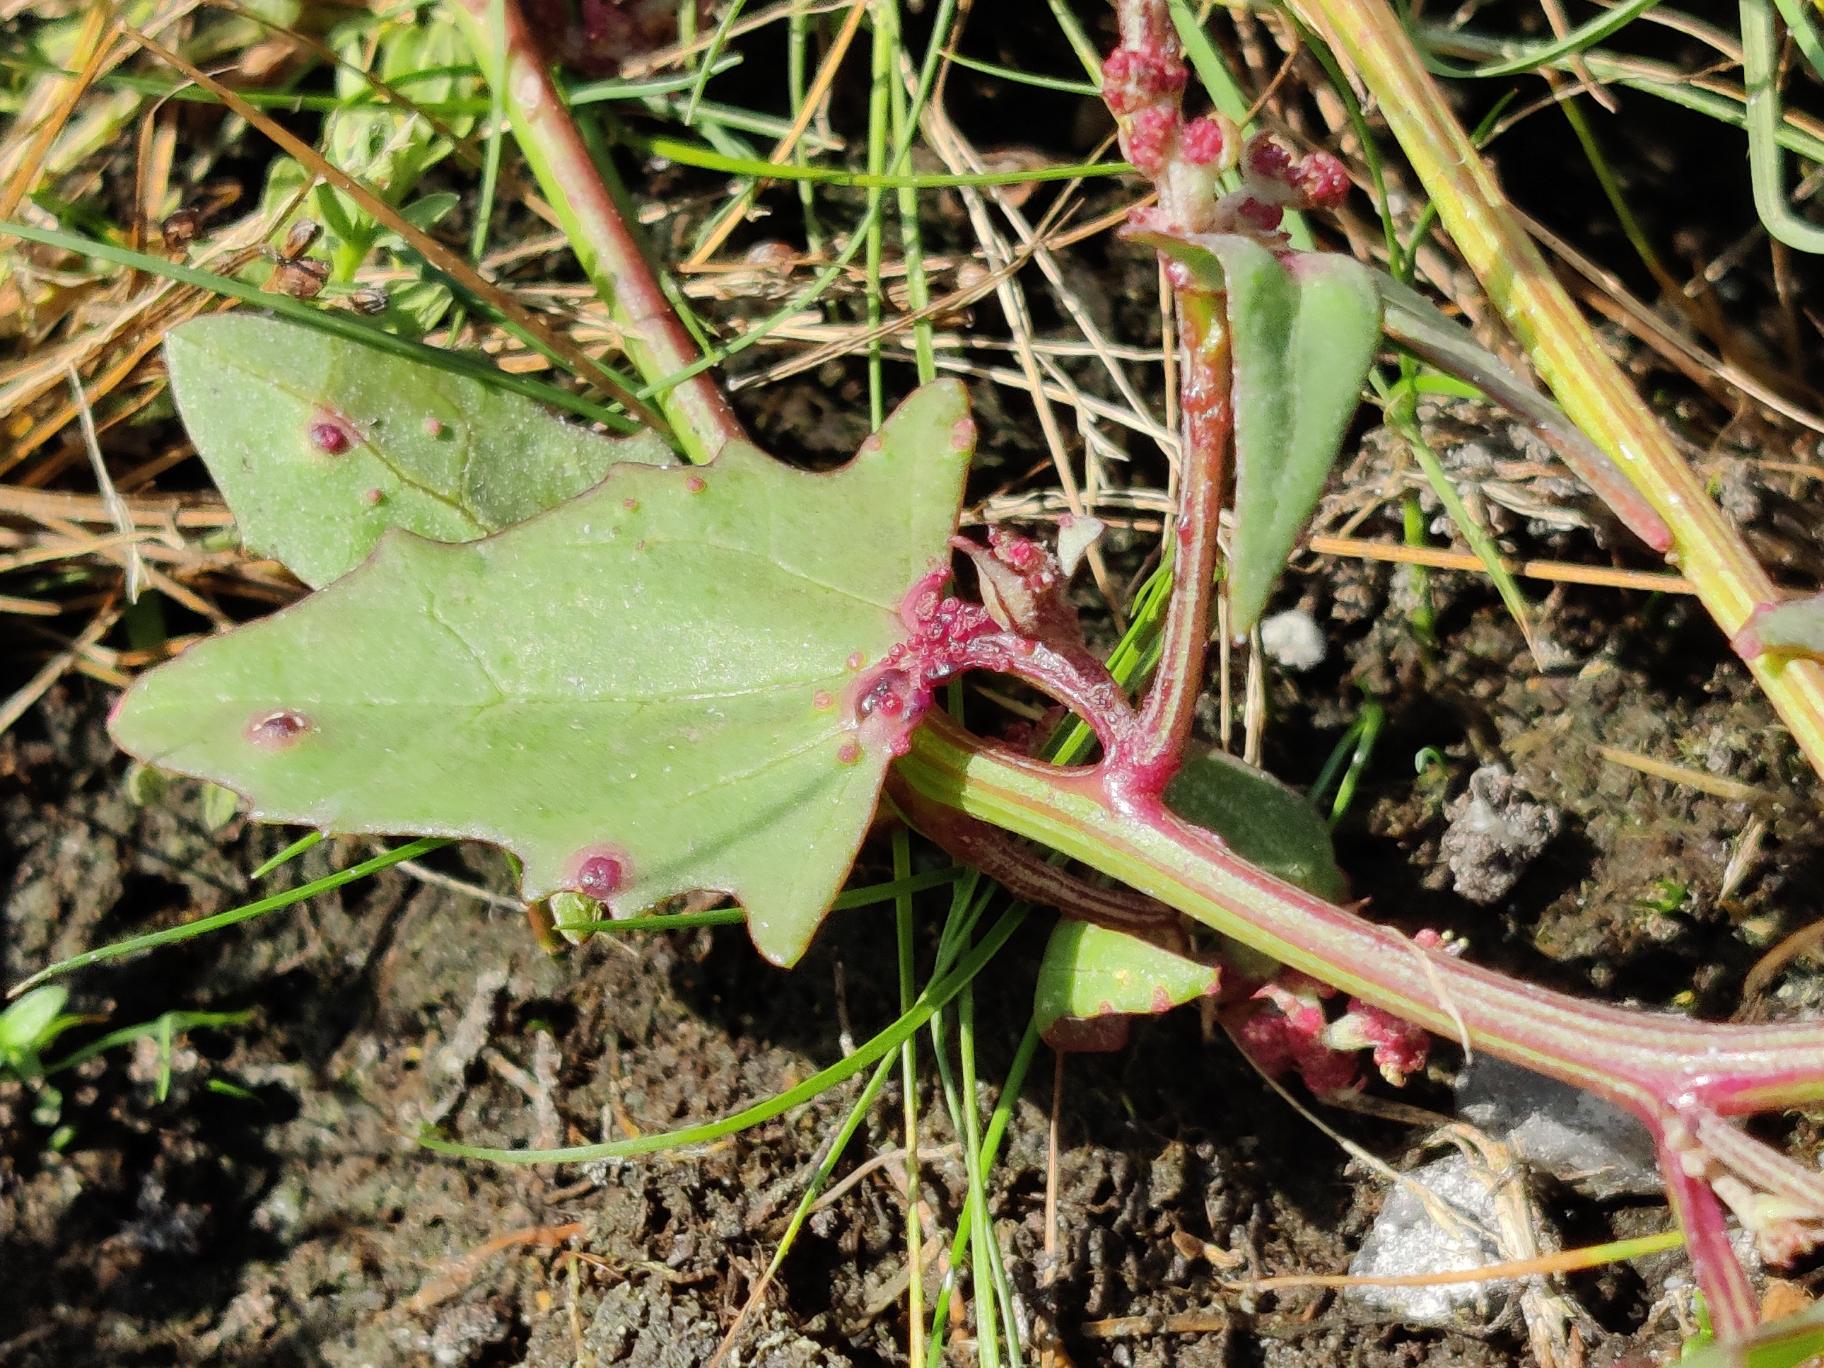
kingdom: Plantae
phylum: Tracheophyta
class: Magnoliopsida
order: Caryophyllales
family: Amaranthaceae
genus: Atriplex
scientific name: Atriplex prostrata
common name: Spyd-mælde
